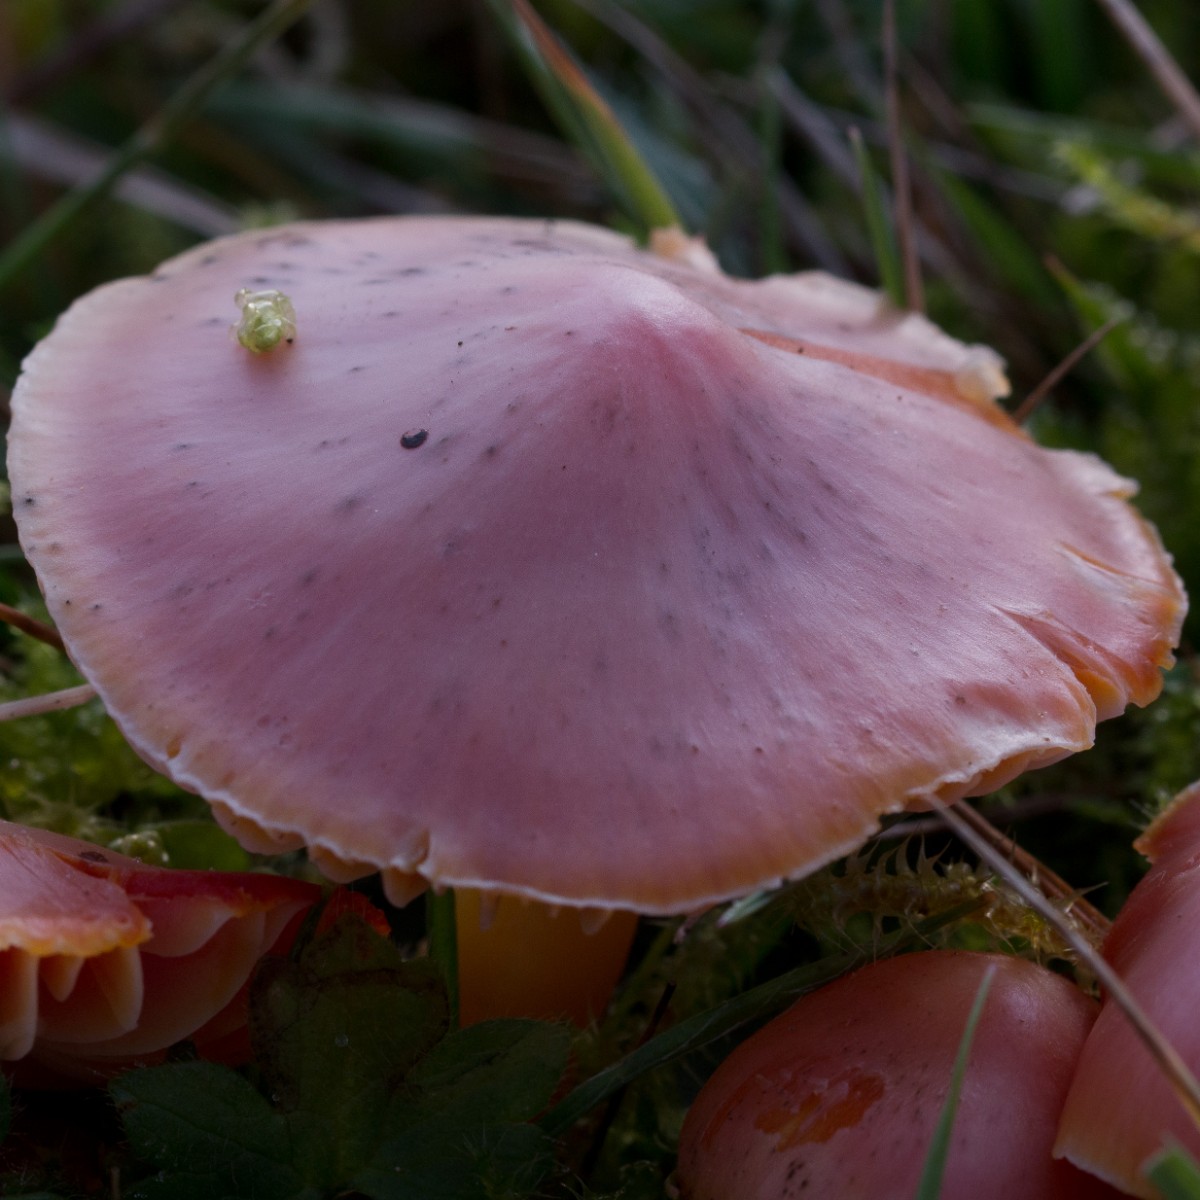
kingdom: Fungi
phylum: Basidiomycota
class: Agaricomycetes
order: Agaricales
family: Hygrophoraceae
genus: Hygrocybe
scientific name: Hygrocybe coccinea
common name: cinnober-vokshat
